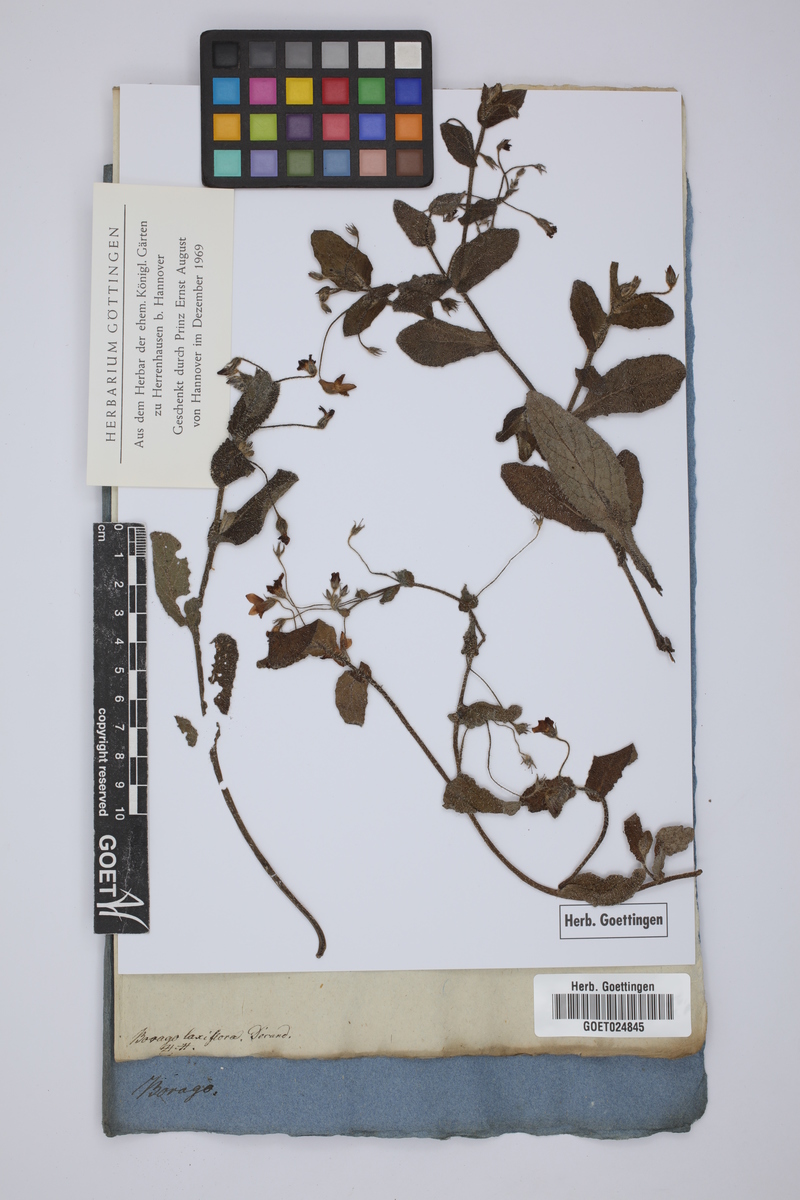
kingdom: Plantae
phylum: Tracheophyta
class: Magnoliopsida
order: Boraginales
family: Boraginaceae
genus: Borago
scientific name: Borago pygmaea
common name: Slender borage
